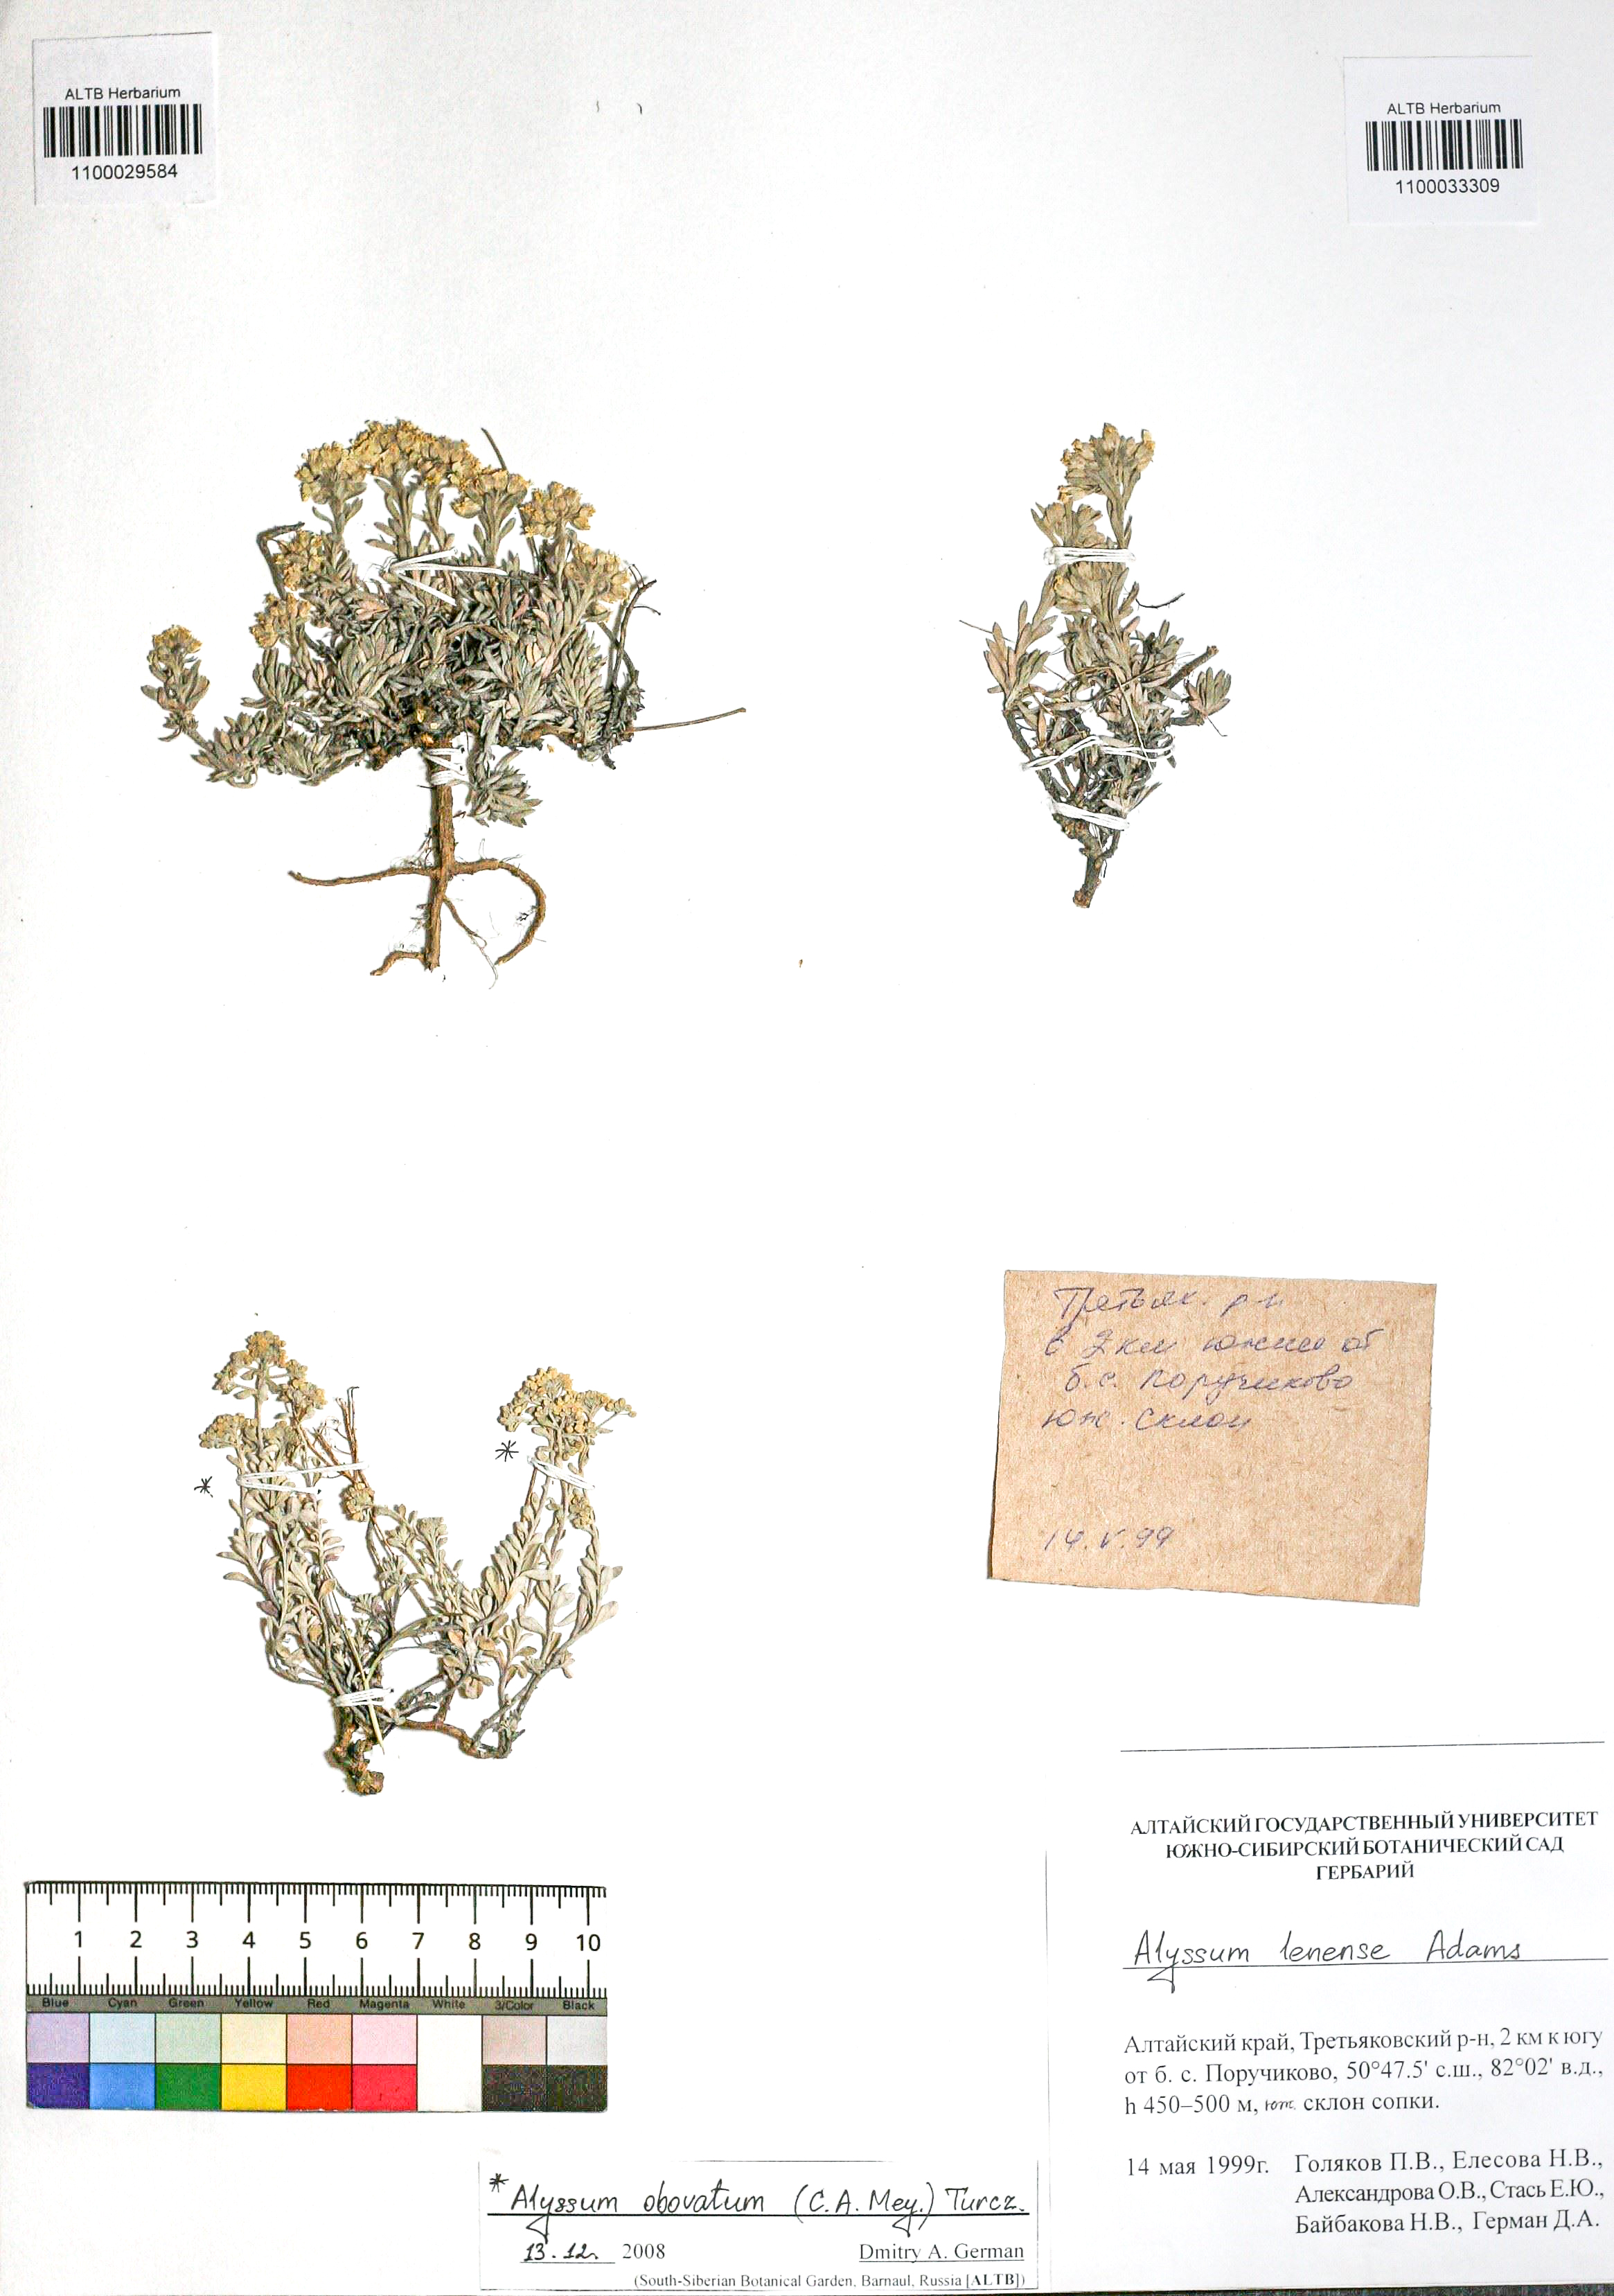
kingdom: Plantae
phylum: Tracheophyta
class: Magnoliopsida
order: Brassicales
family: Brassicaceae
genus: Odontarrhena
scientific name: Odontarrhena obovata
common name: American alyssum
